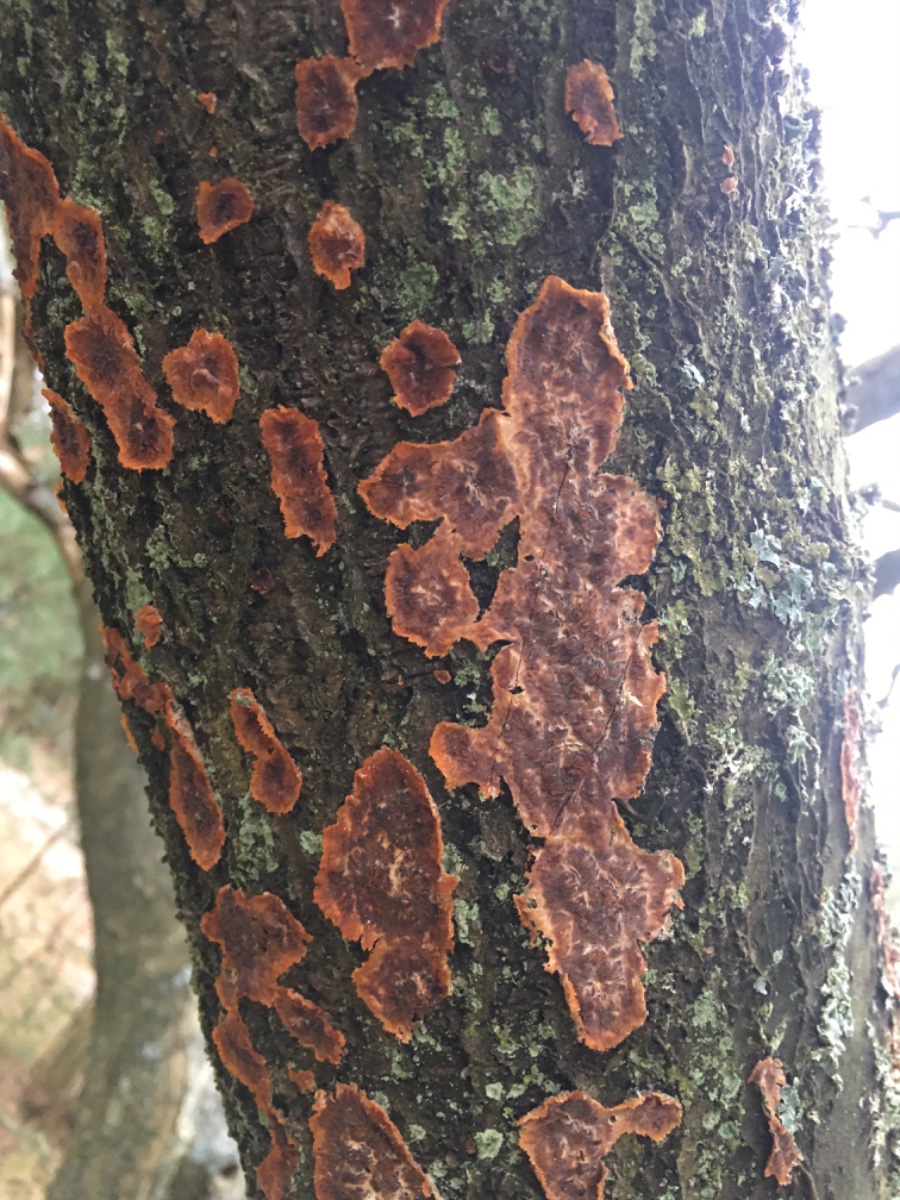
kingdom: Fungi
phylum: Basidiomycota
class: Agaricomycetes
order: Polyporales
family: Meruliaceae
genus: Phlebia
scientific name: Phlebia radiata
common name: stråle-åresvamp
